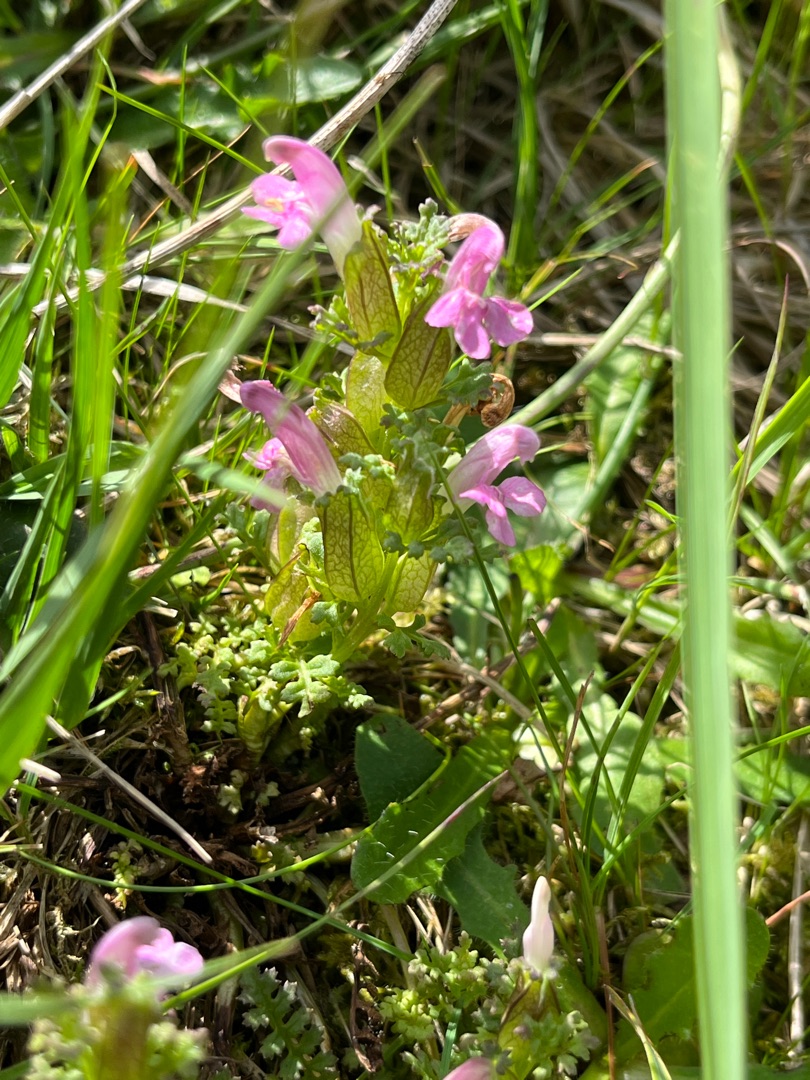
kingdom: Plantae
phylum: Tracheophyta
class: Magnoliopsida
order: Lamiales
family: Orobanchaceae
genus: Pedicularis
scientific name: Pedicularis palustris
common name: Eng-troldurt
